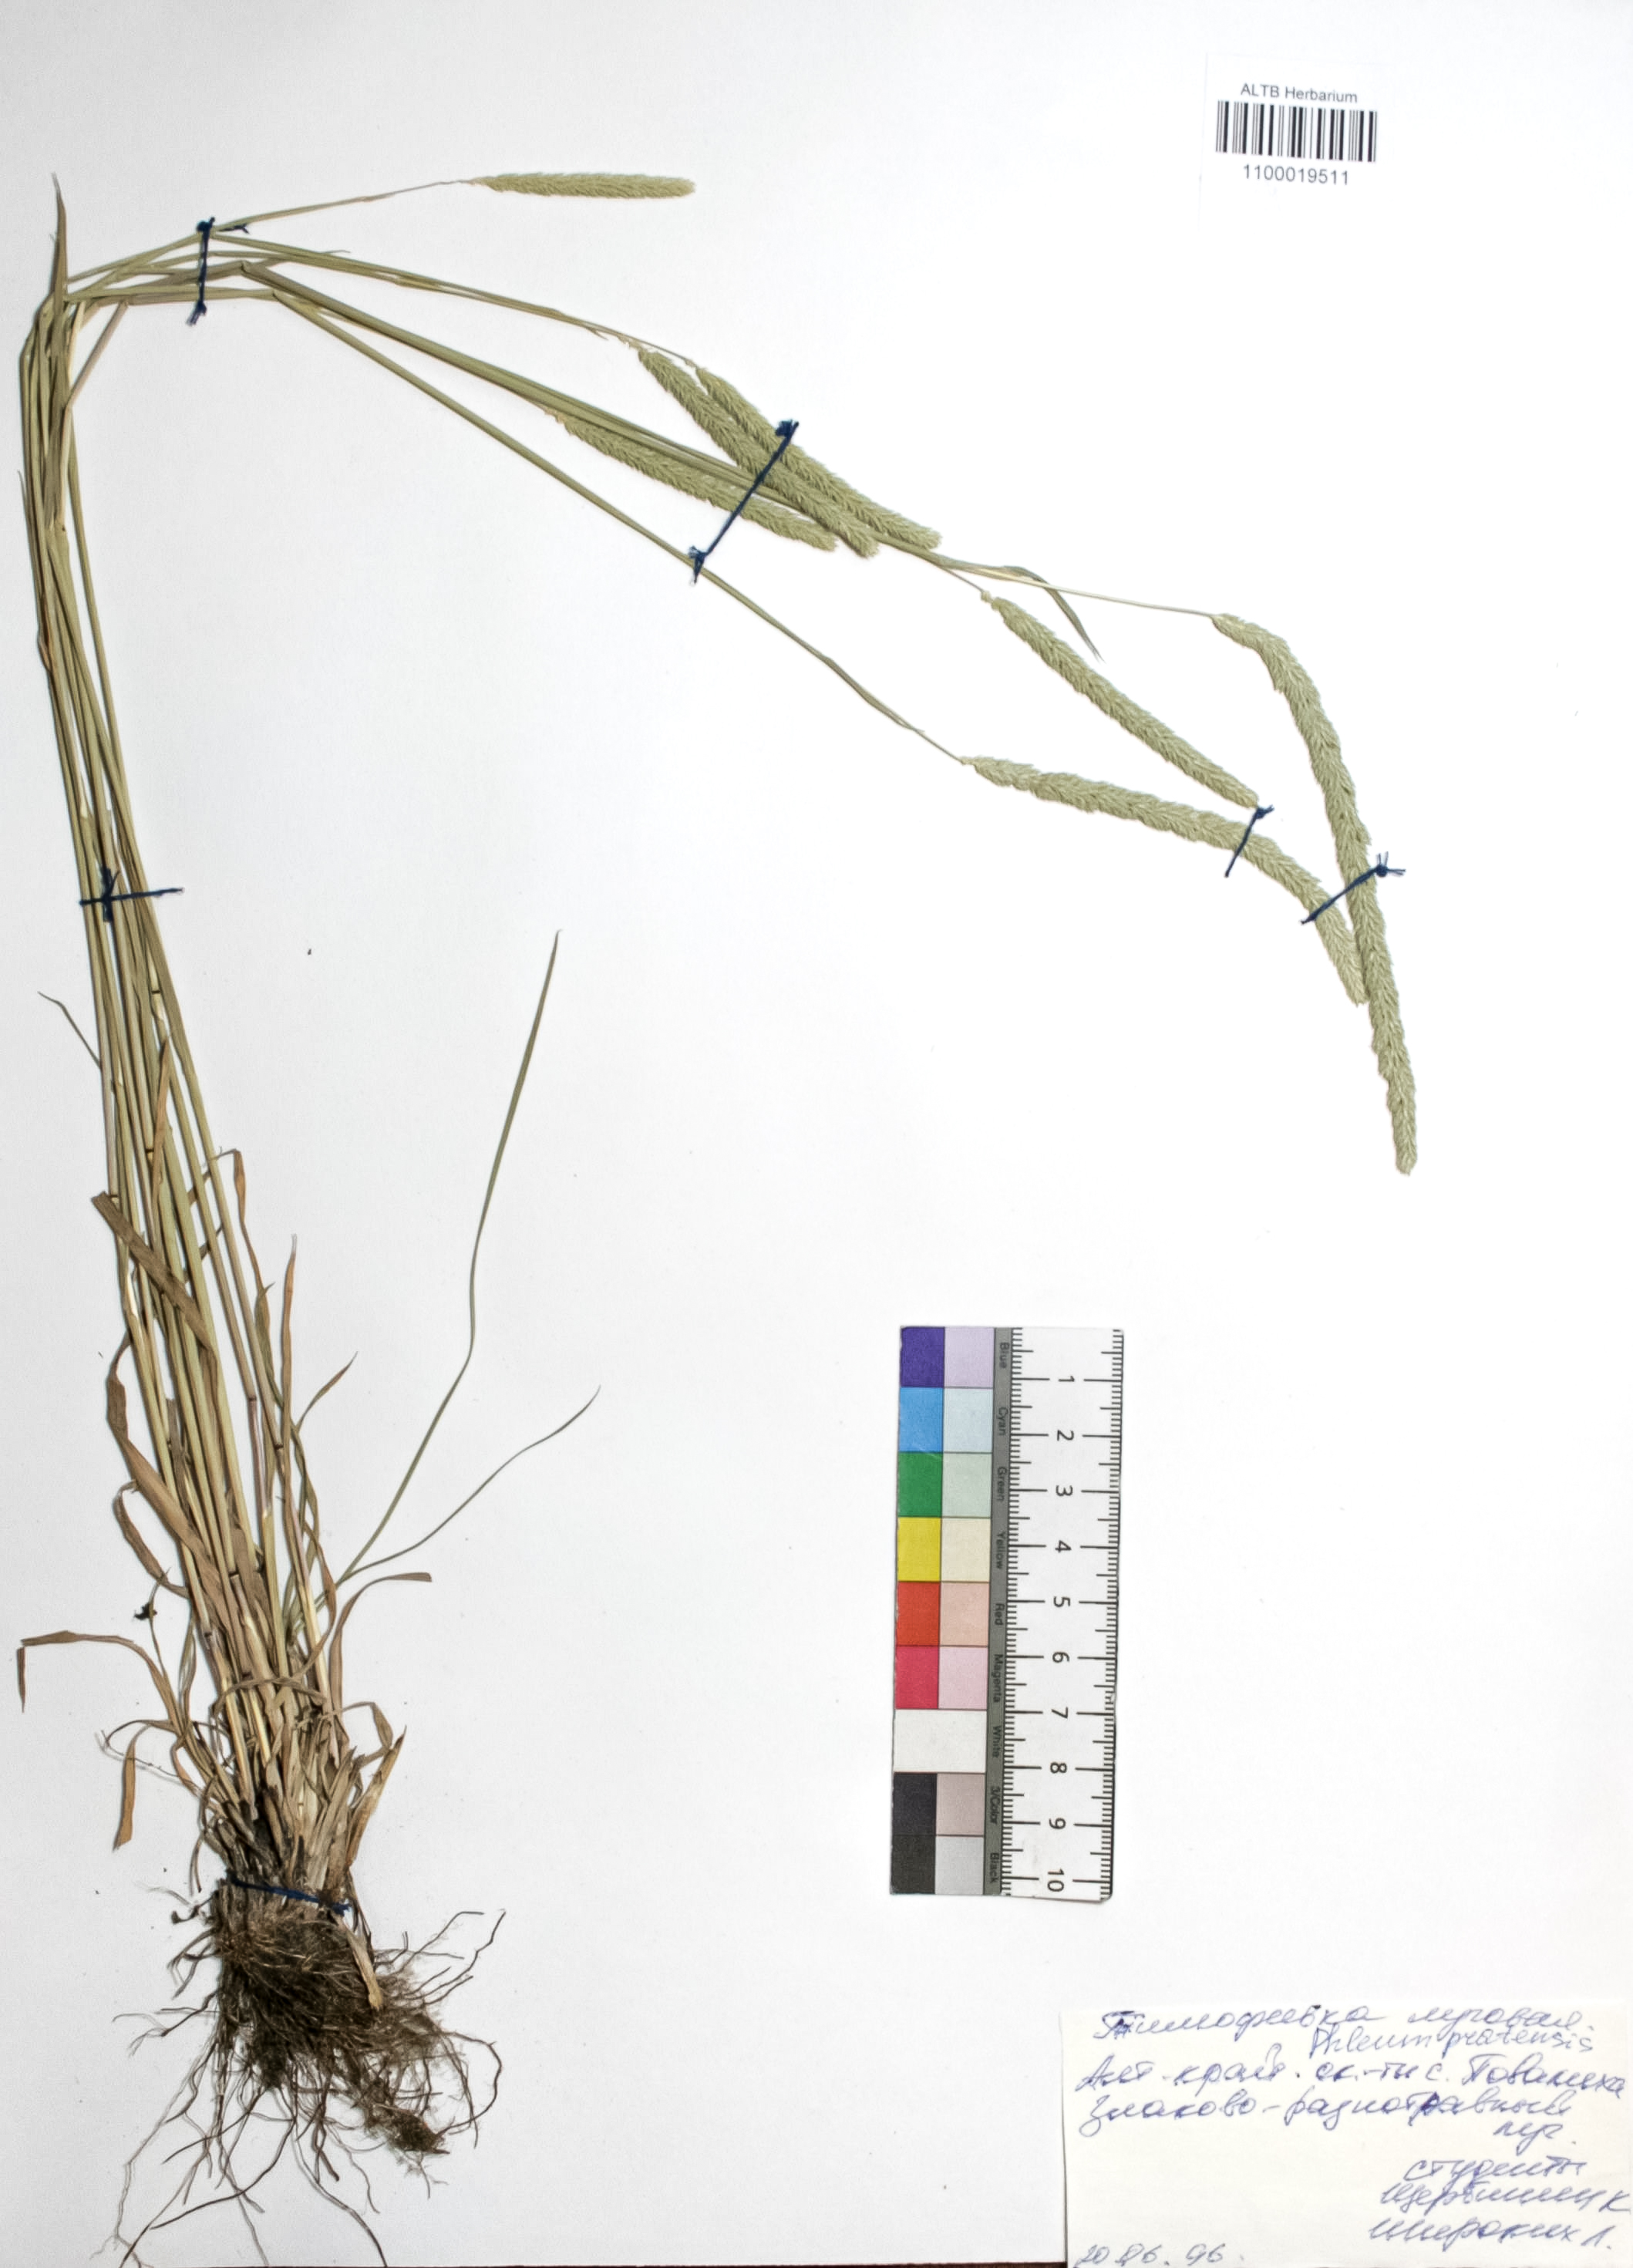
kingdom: Plantae
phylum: Tracheophyta
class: Liliopsida
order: Poales
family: Poaceae
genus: Phleum
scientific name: Phleum pratense
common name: Timothy grass
